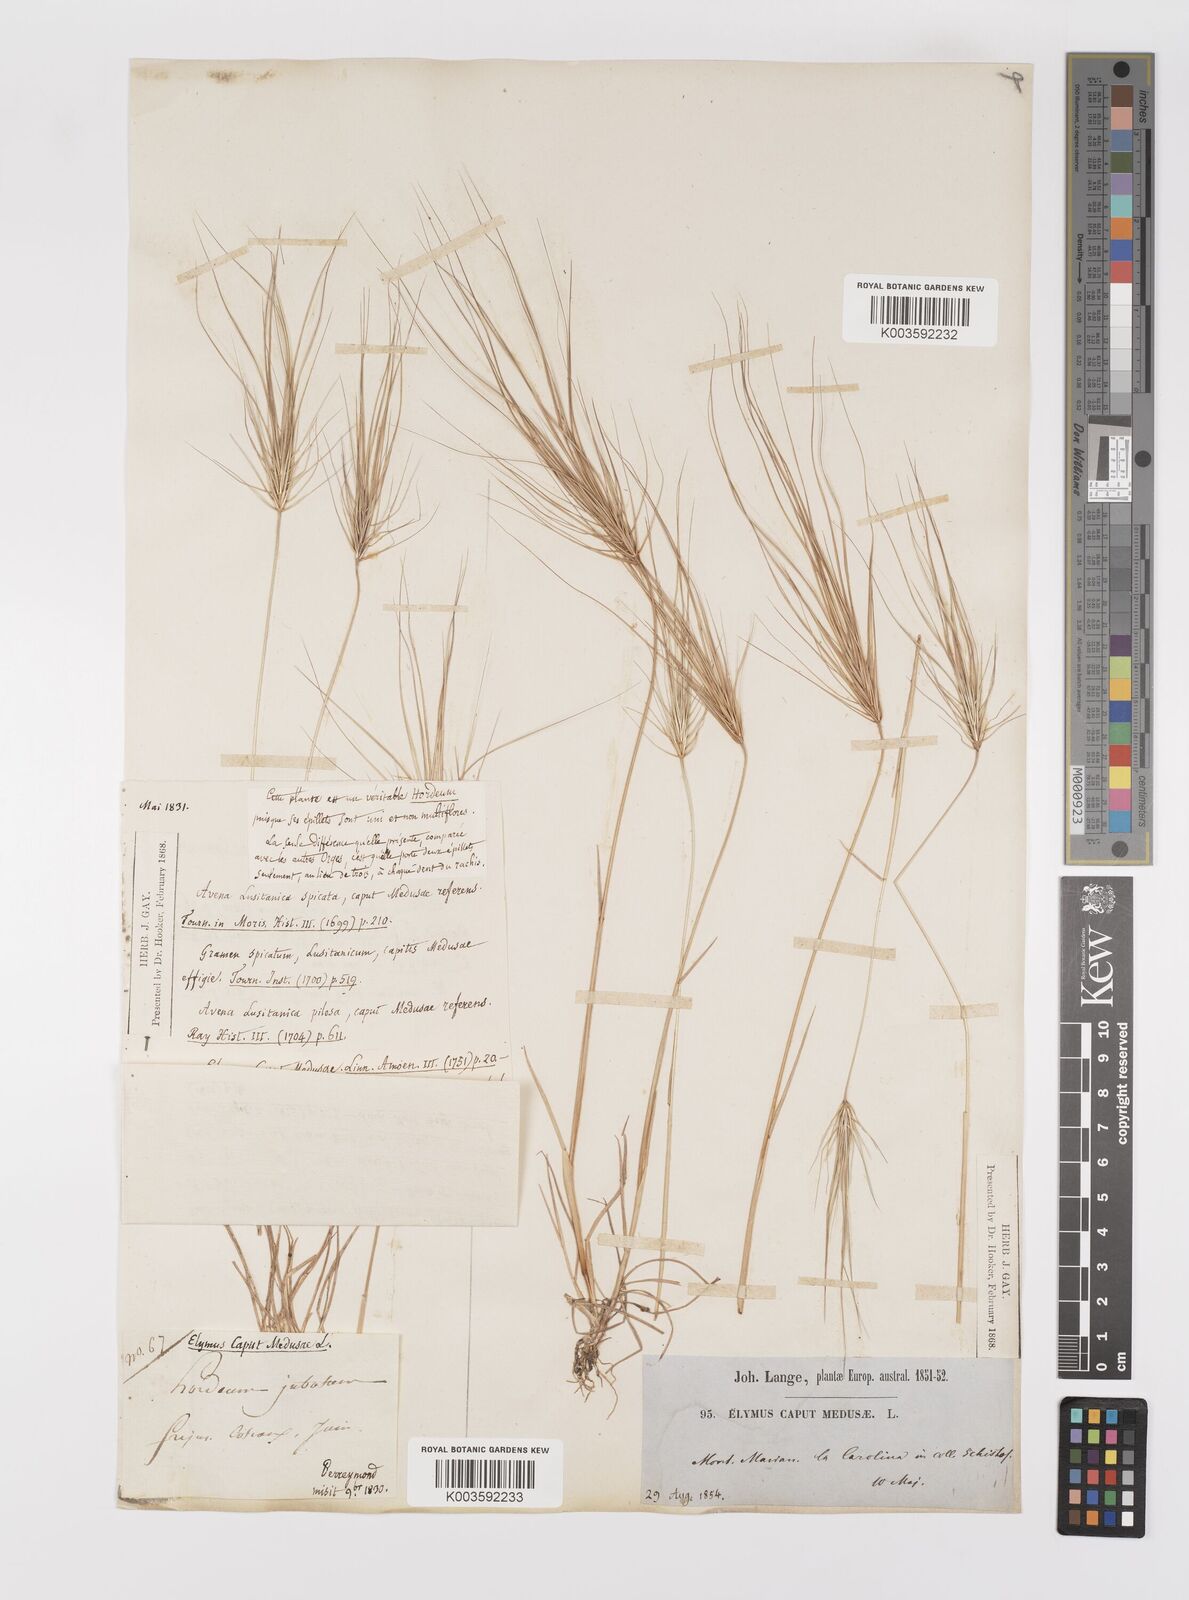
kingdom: Plantae
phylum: Tracheophyta
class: Liliopsida
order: Poales
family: Poaceae
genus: Taeniatherum
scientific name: Taeniatherum caput-medusae
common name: Medusahead
